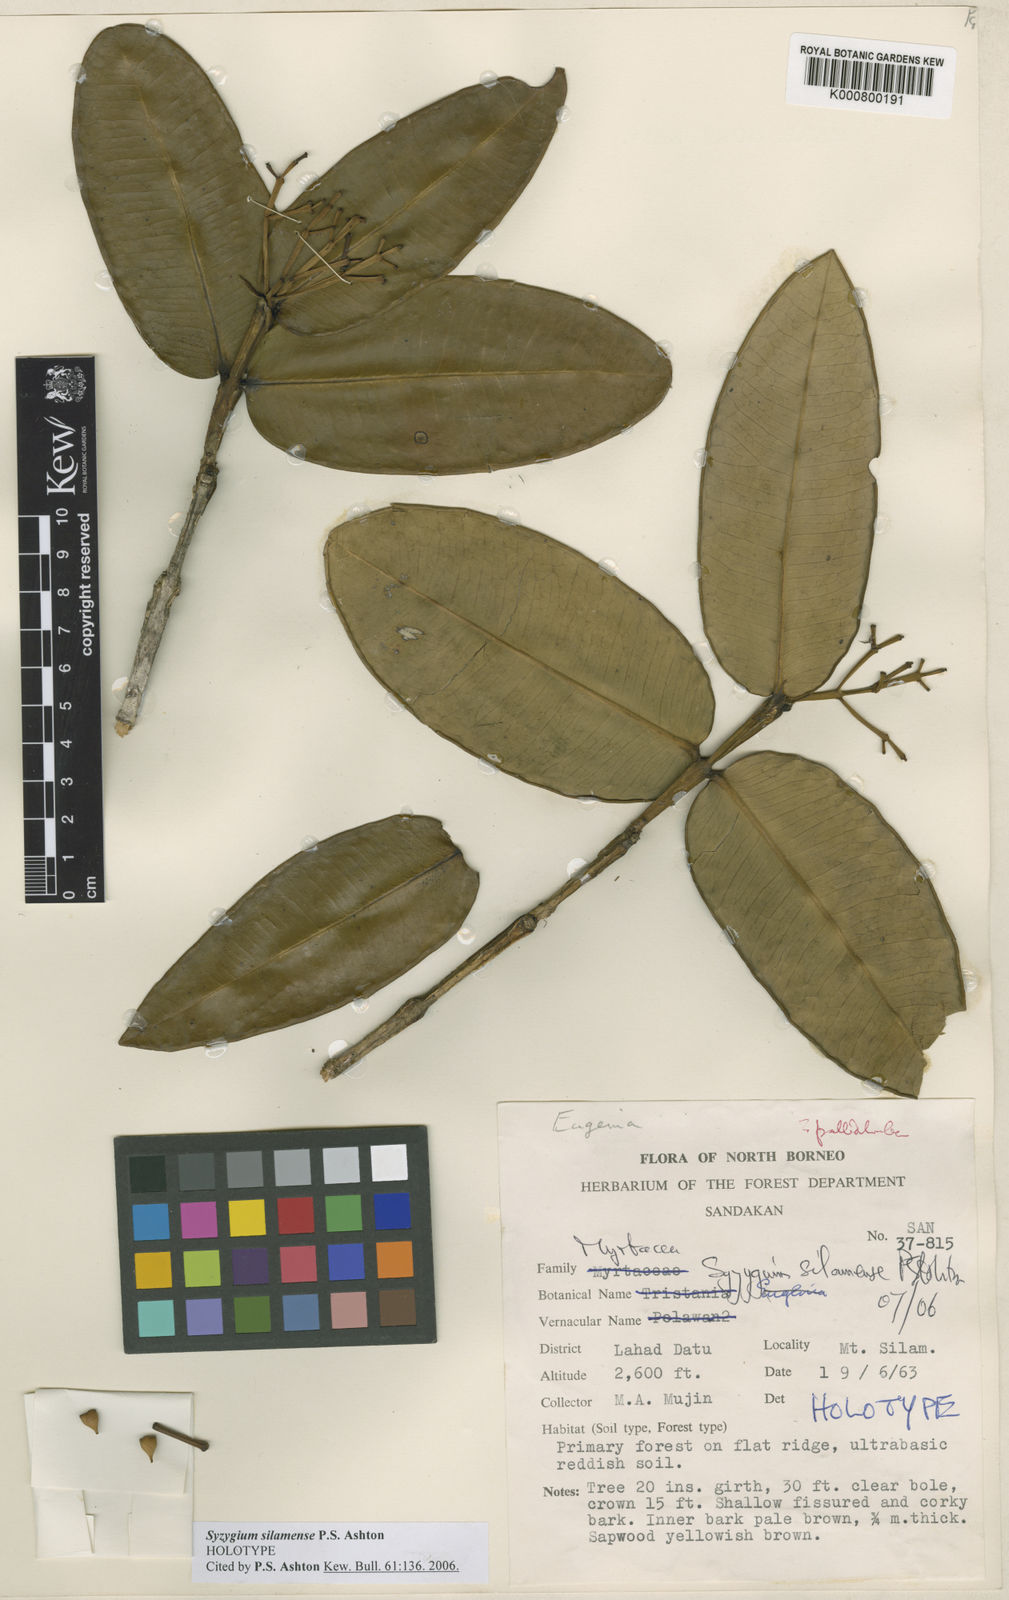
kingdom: Plantae
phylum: Tracheophyta
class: Magnoliopsida
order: Myrtales
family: Myrtaceae
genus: Syzygium
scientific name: Syzygium silamense
